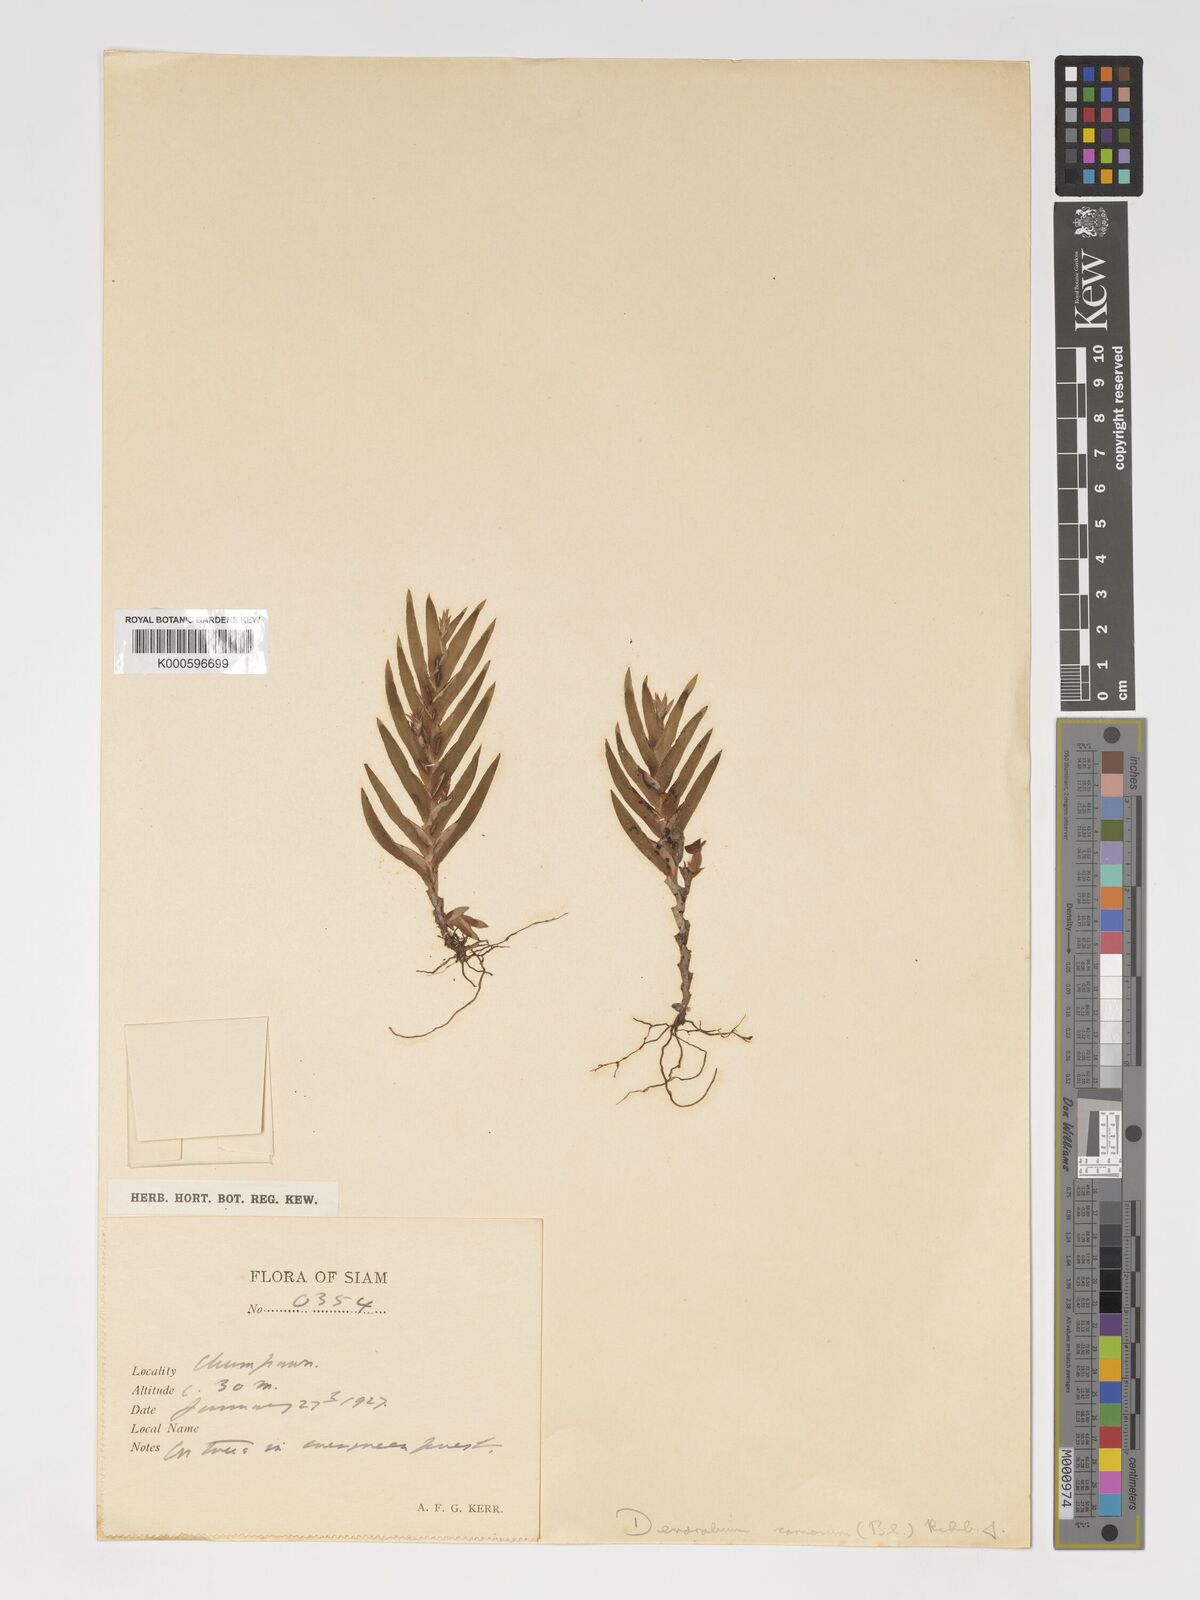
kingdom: Plantae
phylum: Tracheophyta
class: Liliopsida
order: Asparagales
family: Orchidaceae
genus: Oxystophyllum
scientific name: Oxystophyllum carnosum
